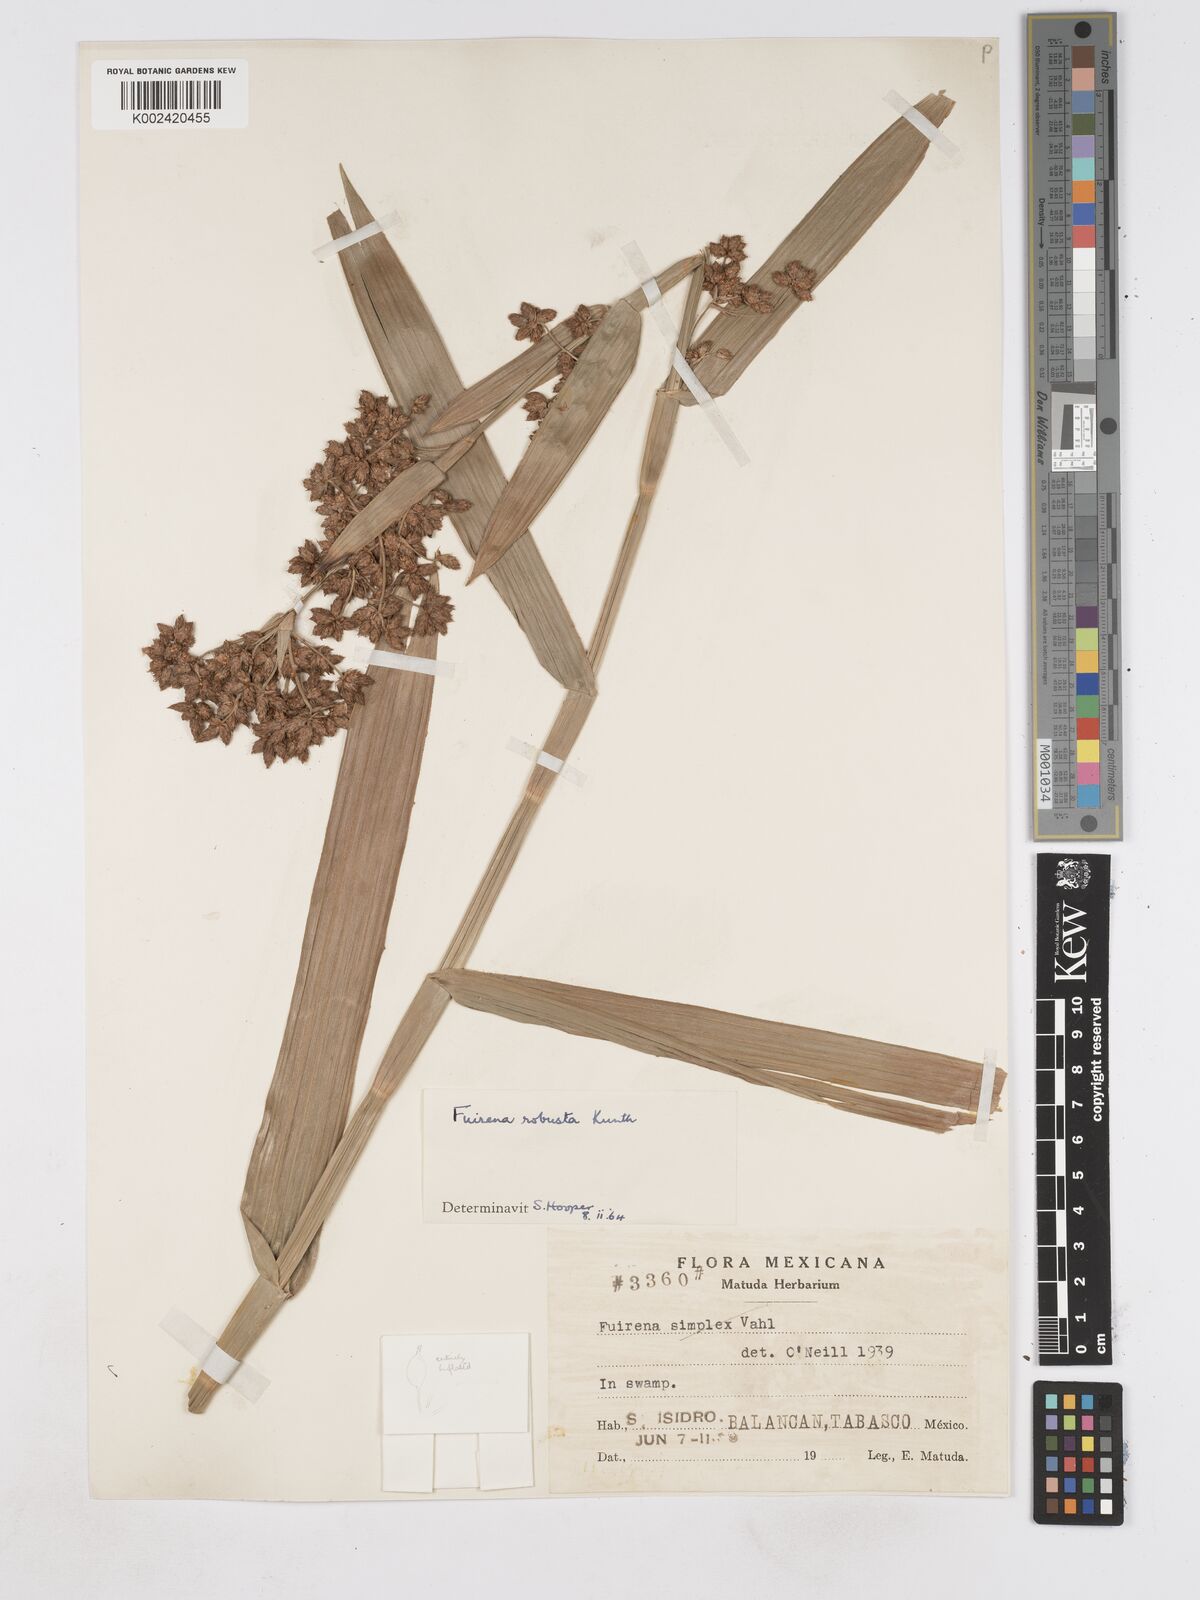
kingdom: Plantae
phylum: Tracheophyta
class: Liliopsida
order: Poales
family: Cyperaceae
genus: Fuirena
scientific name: Fuirena robusta
